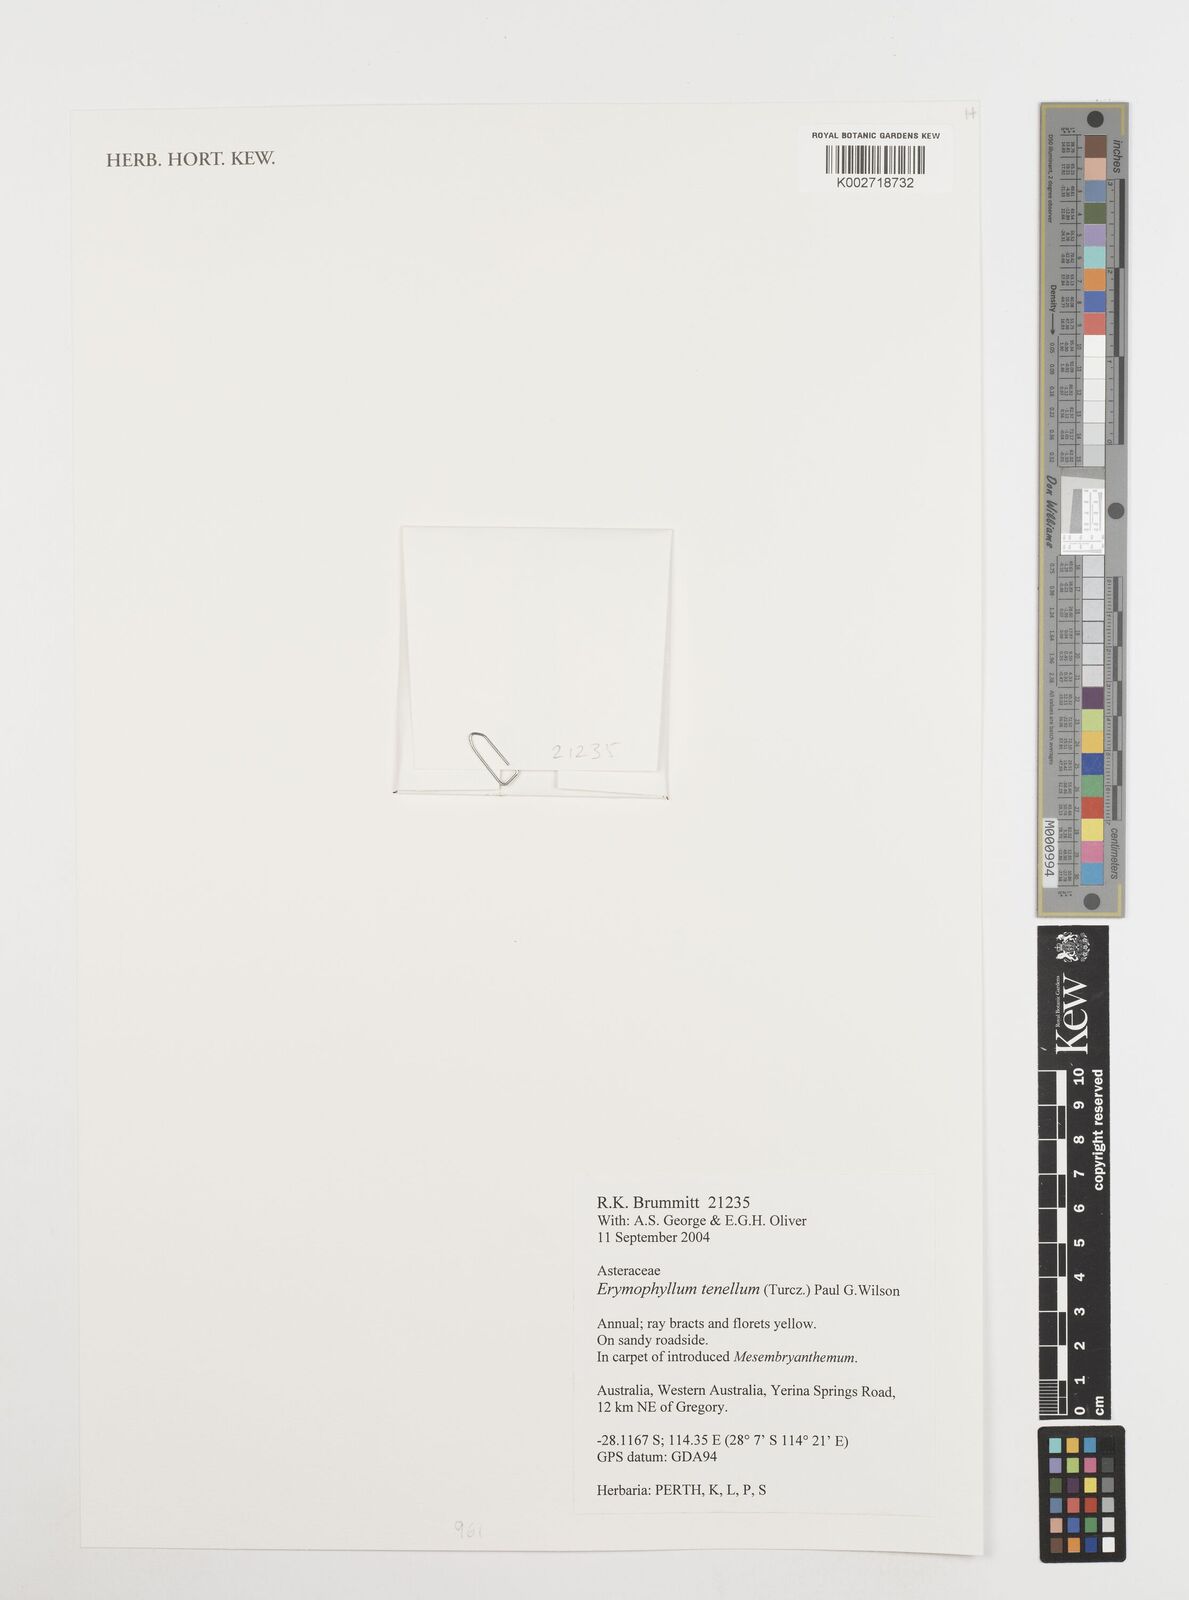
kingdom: Plantae
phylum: Tracheophyta
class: Magnoliopsida
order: Asterales
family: Asteraceae
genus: Erymophyllum
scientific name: Erymophyllum tenellum
